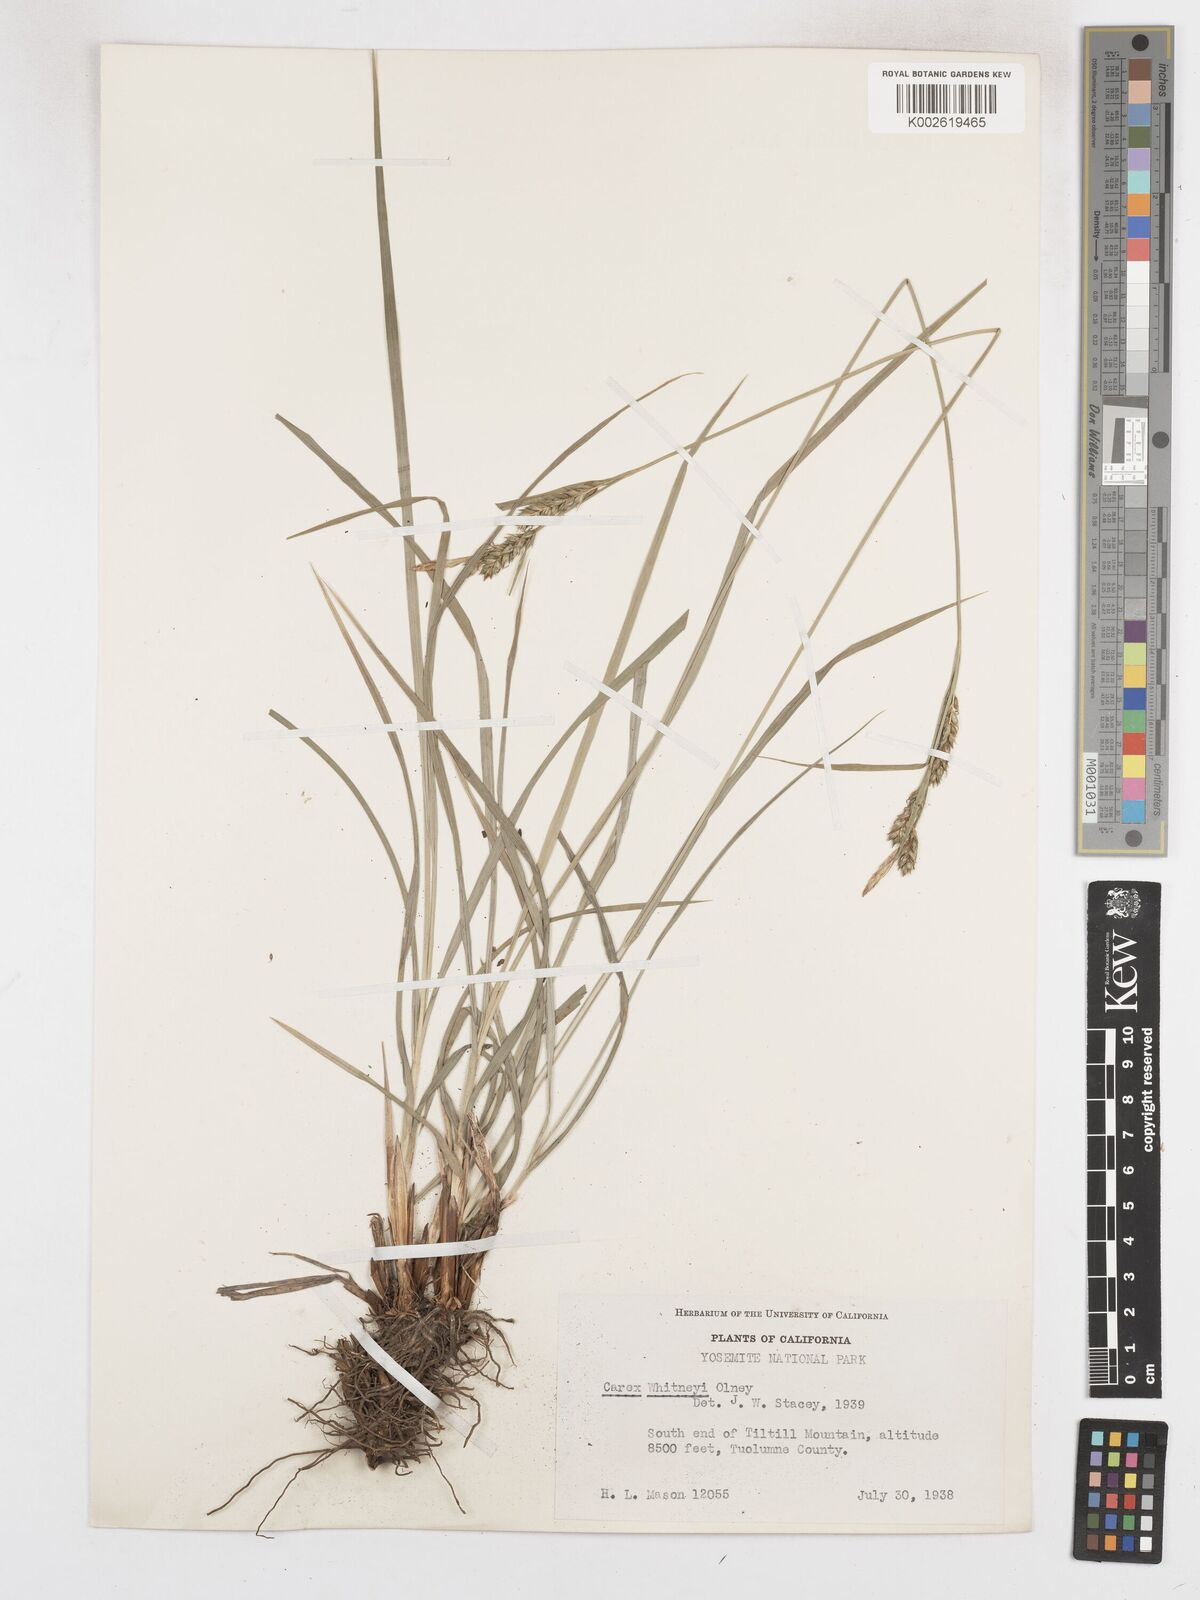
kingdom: Plantae
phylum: Tracheophyta
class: Liliopsida
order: Poales
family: Cyperaceae
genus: Carex
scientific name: Carex whitneyi
